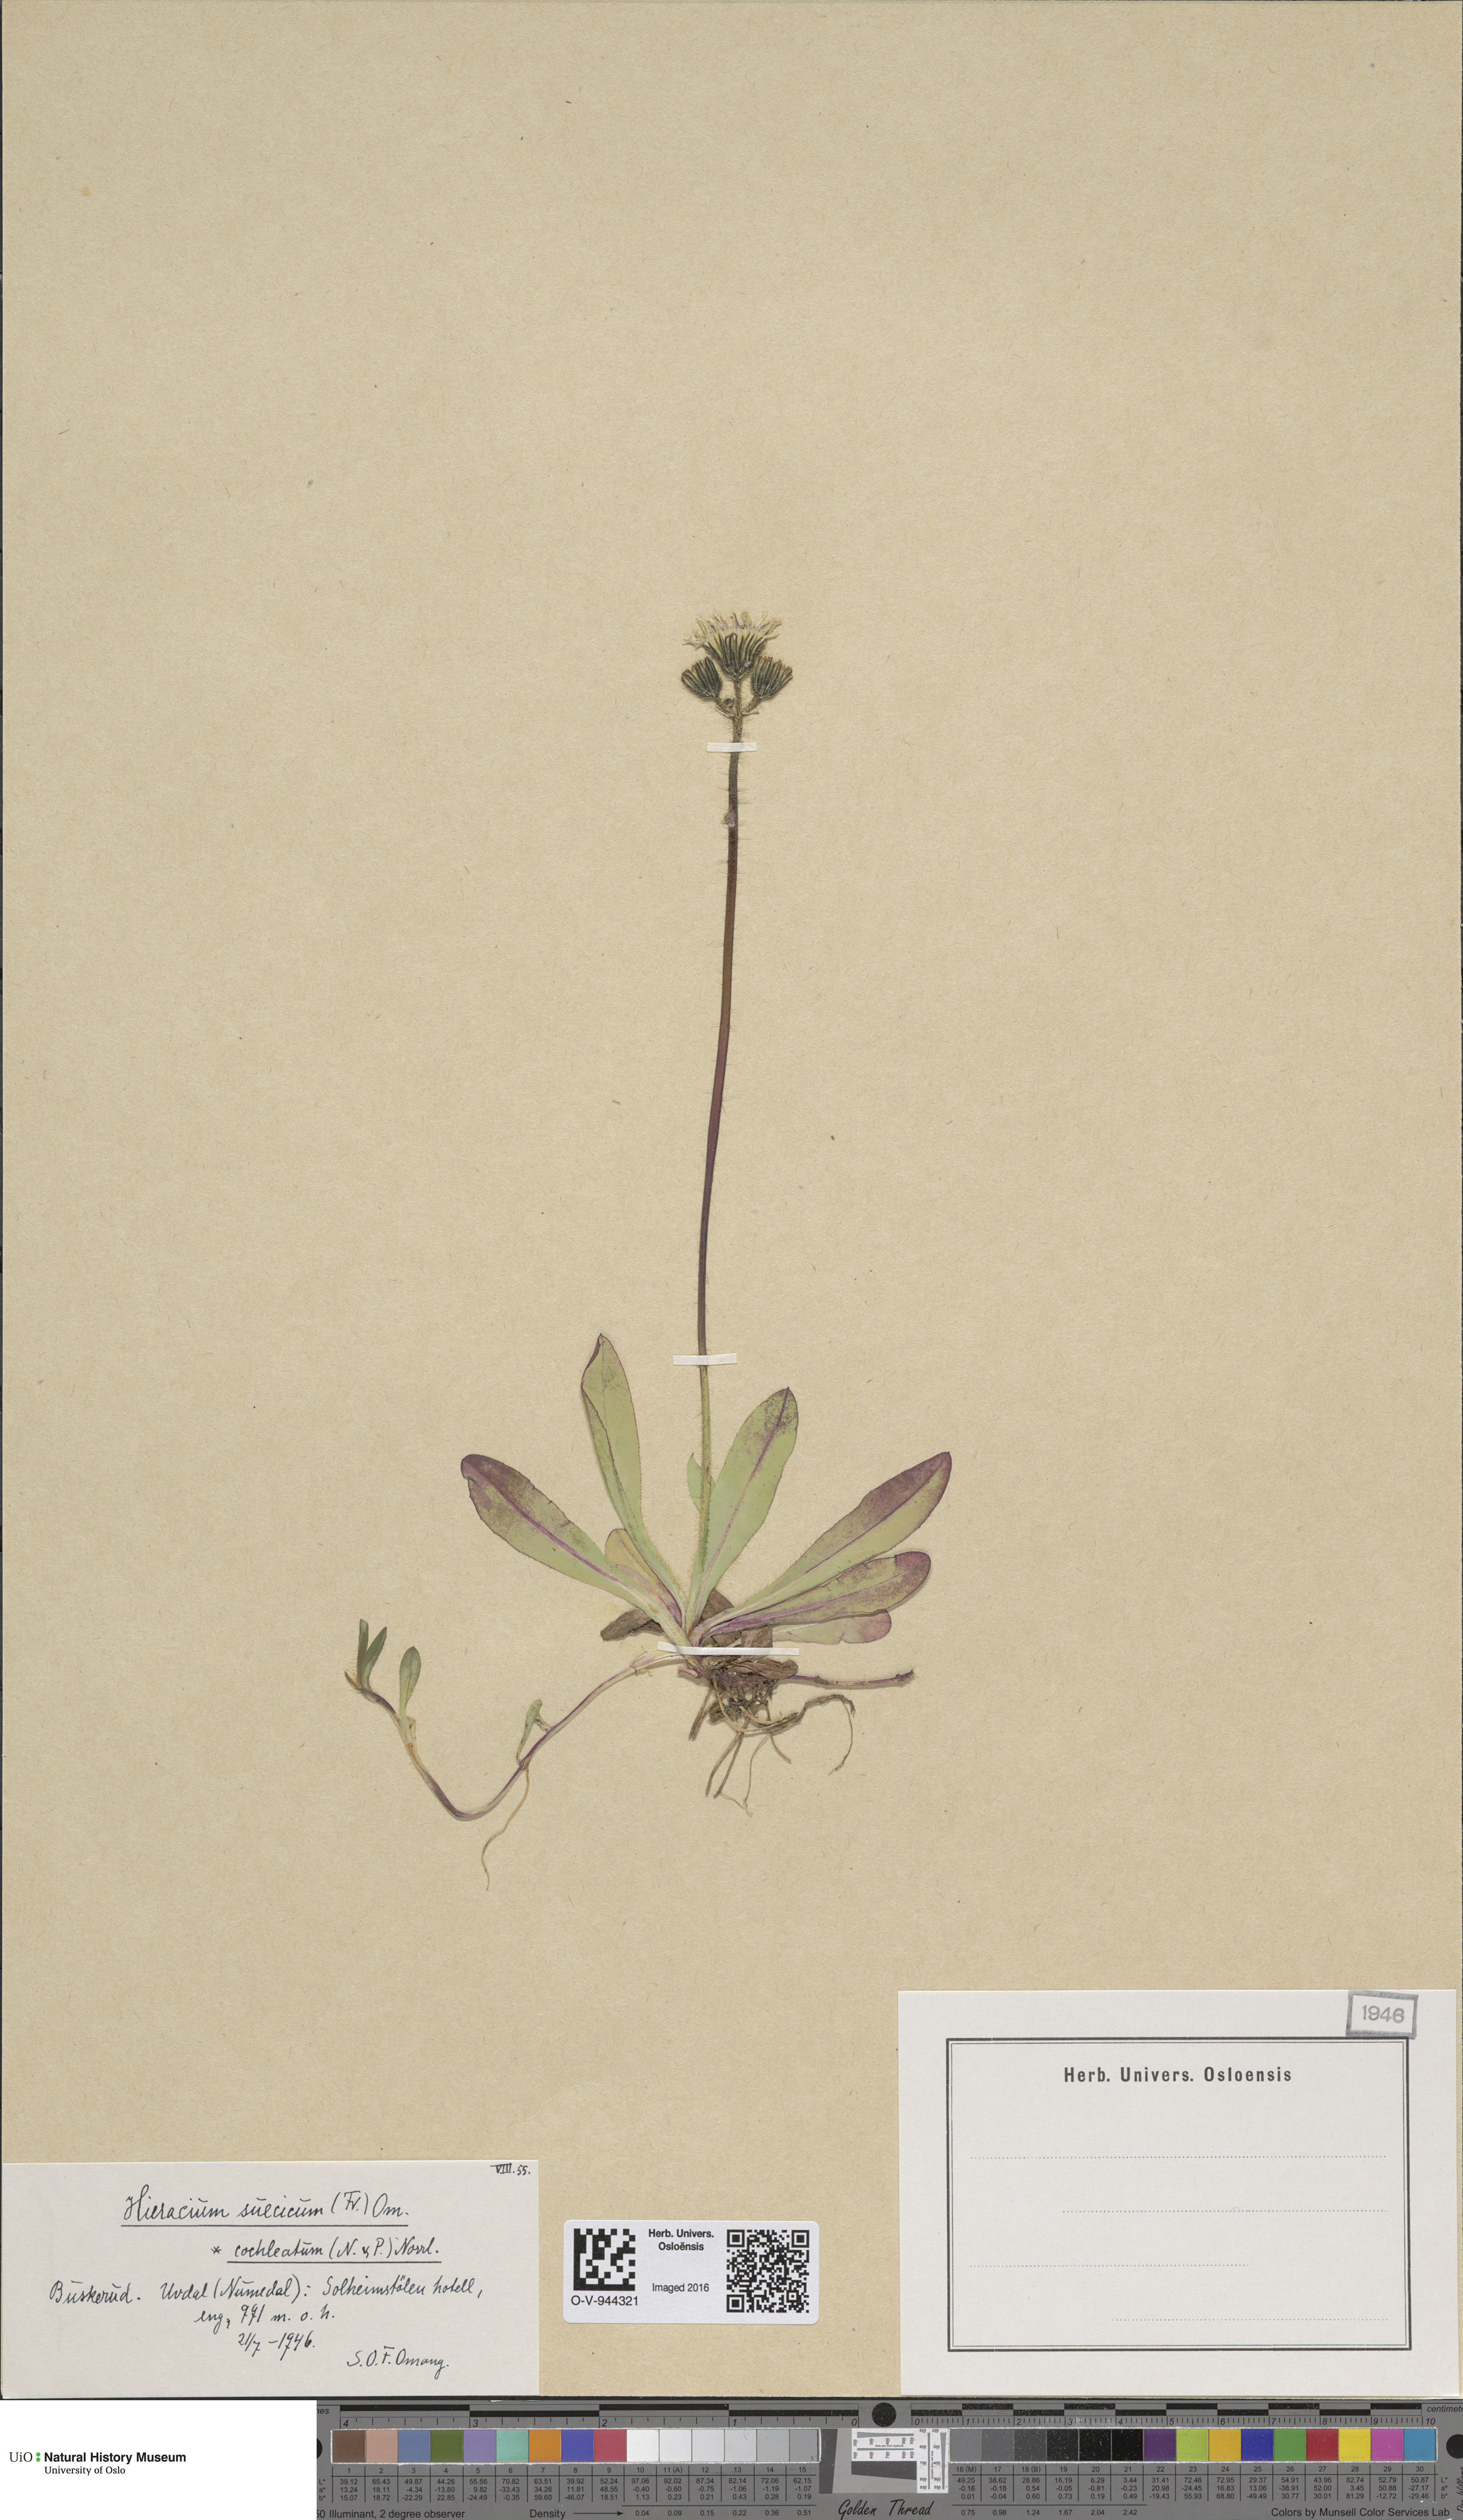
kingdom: Plantae
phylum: Tracheophyta
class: Magnoliopsida
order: Asterales
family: Asteraceae
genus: Pilosella
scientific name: Pilosella dubia
